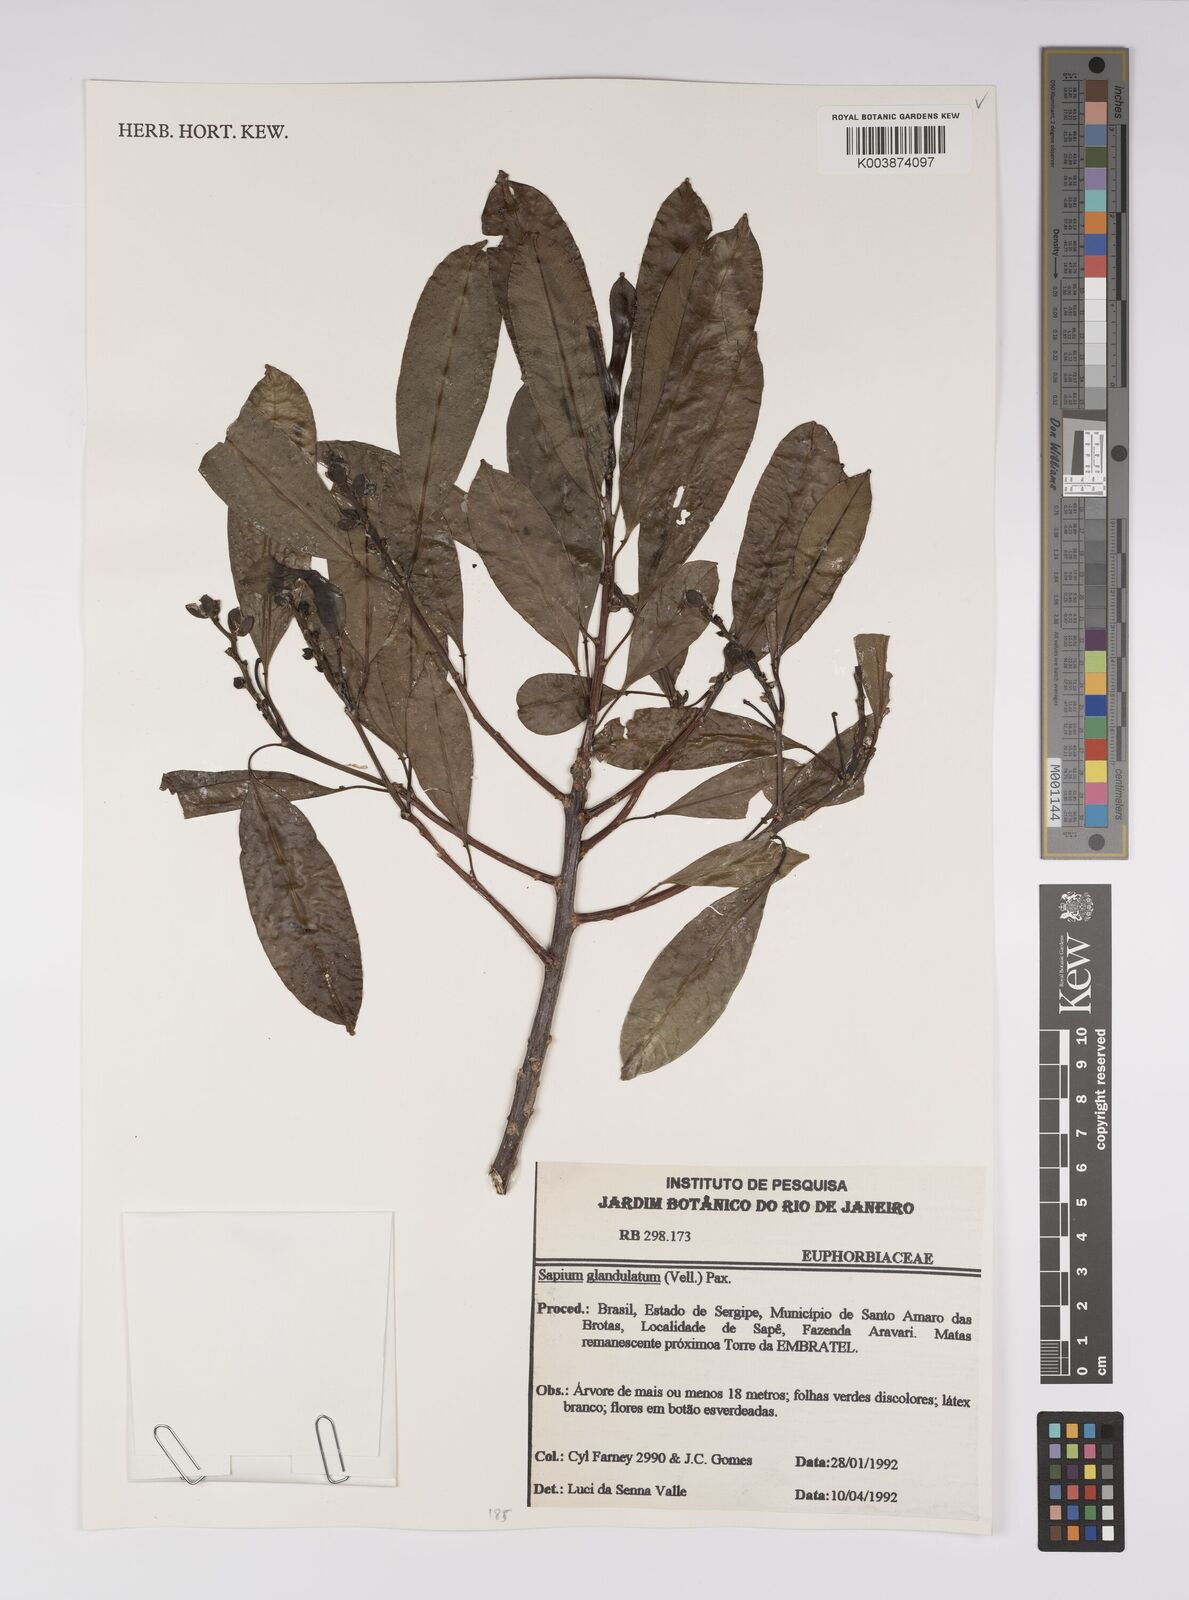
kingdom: Plantae
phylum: Tracheophyta
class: Magnoliopsida
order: Malpighiales
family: Euphorbiaceae
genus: Sapium
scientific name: Sapium glandulosum
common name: Milktree
